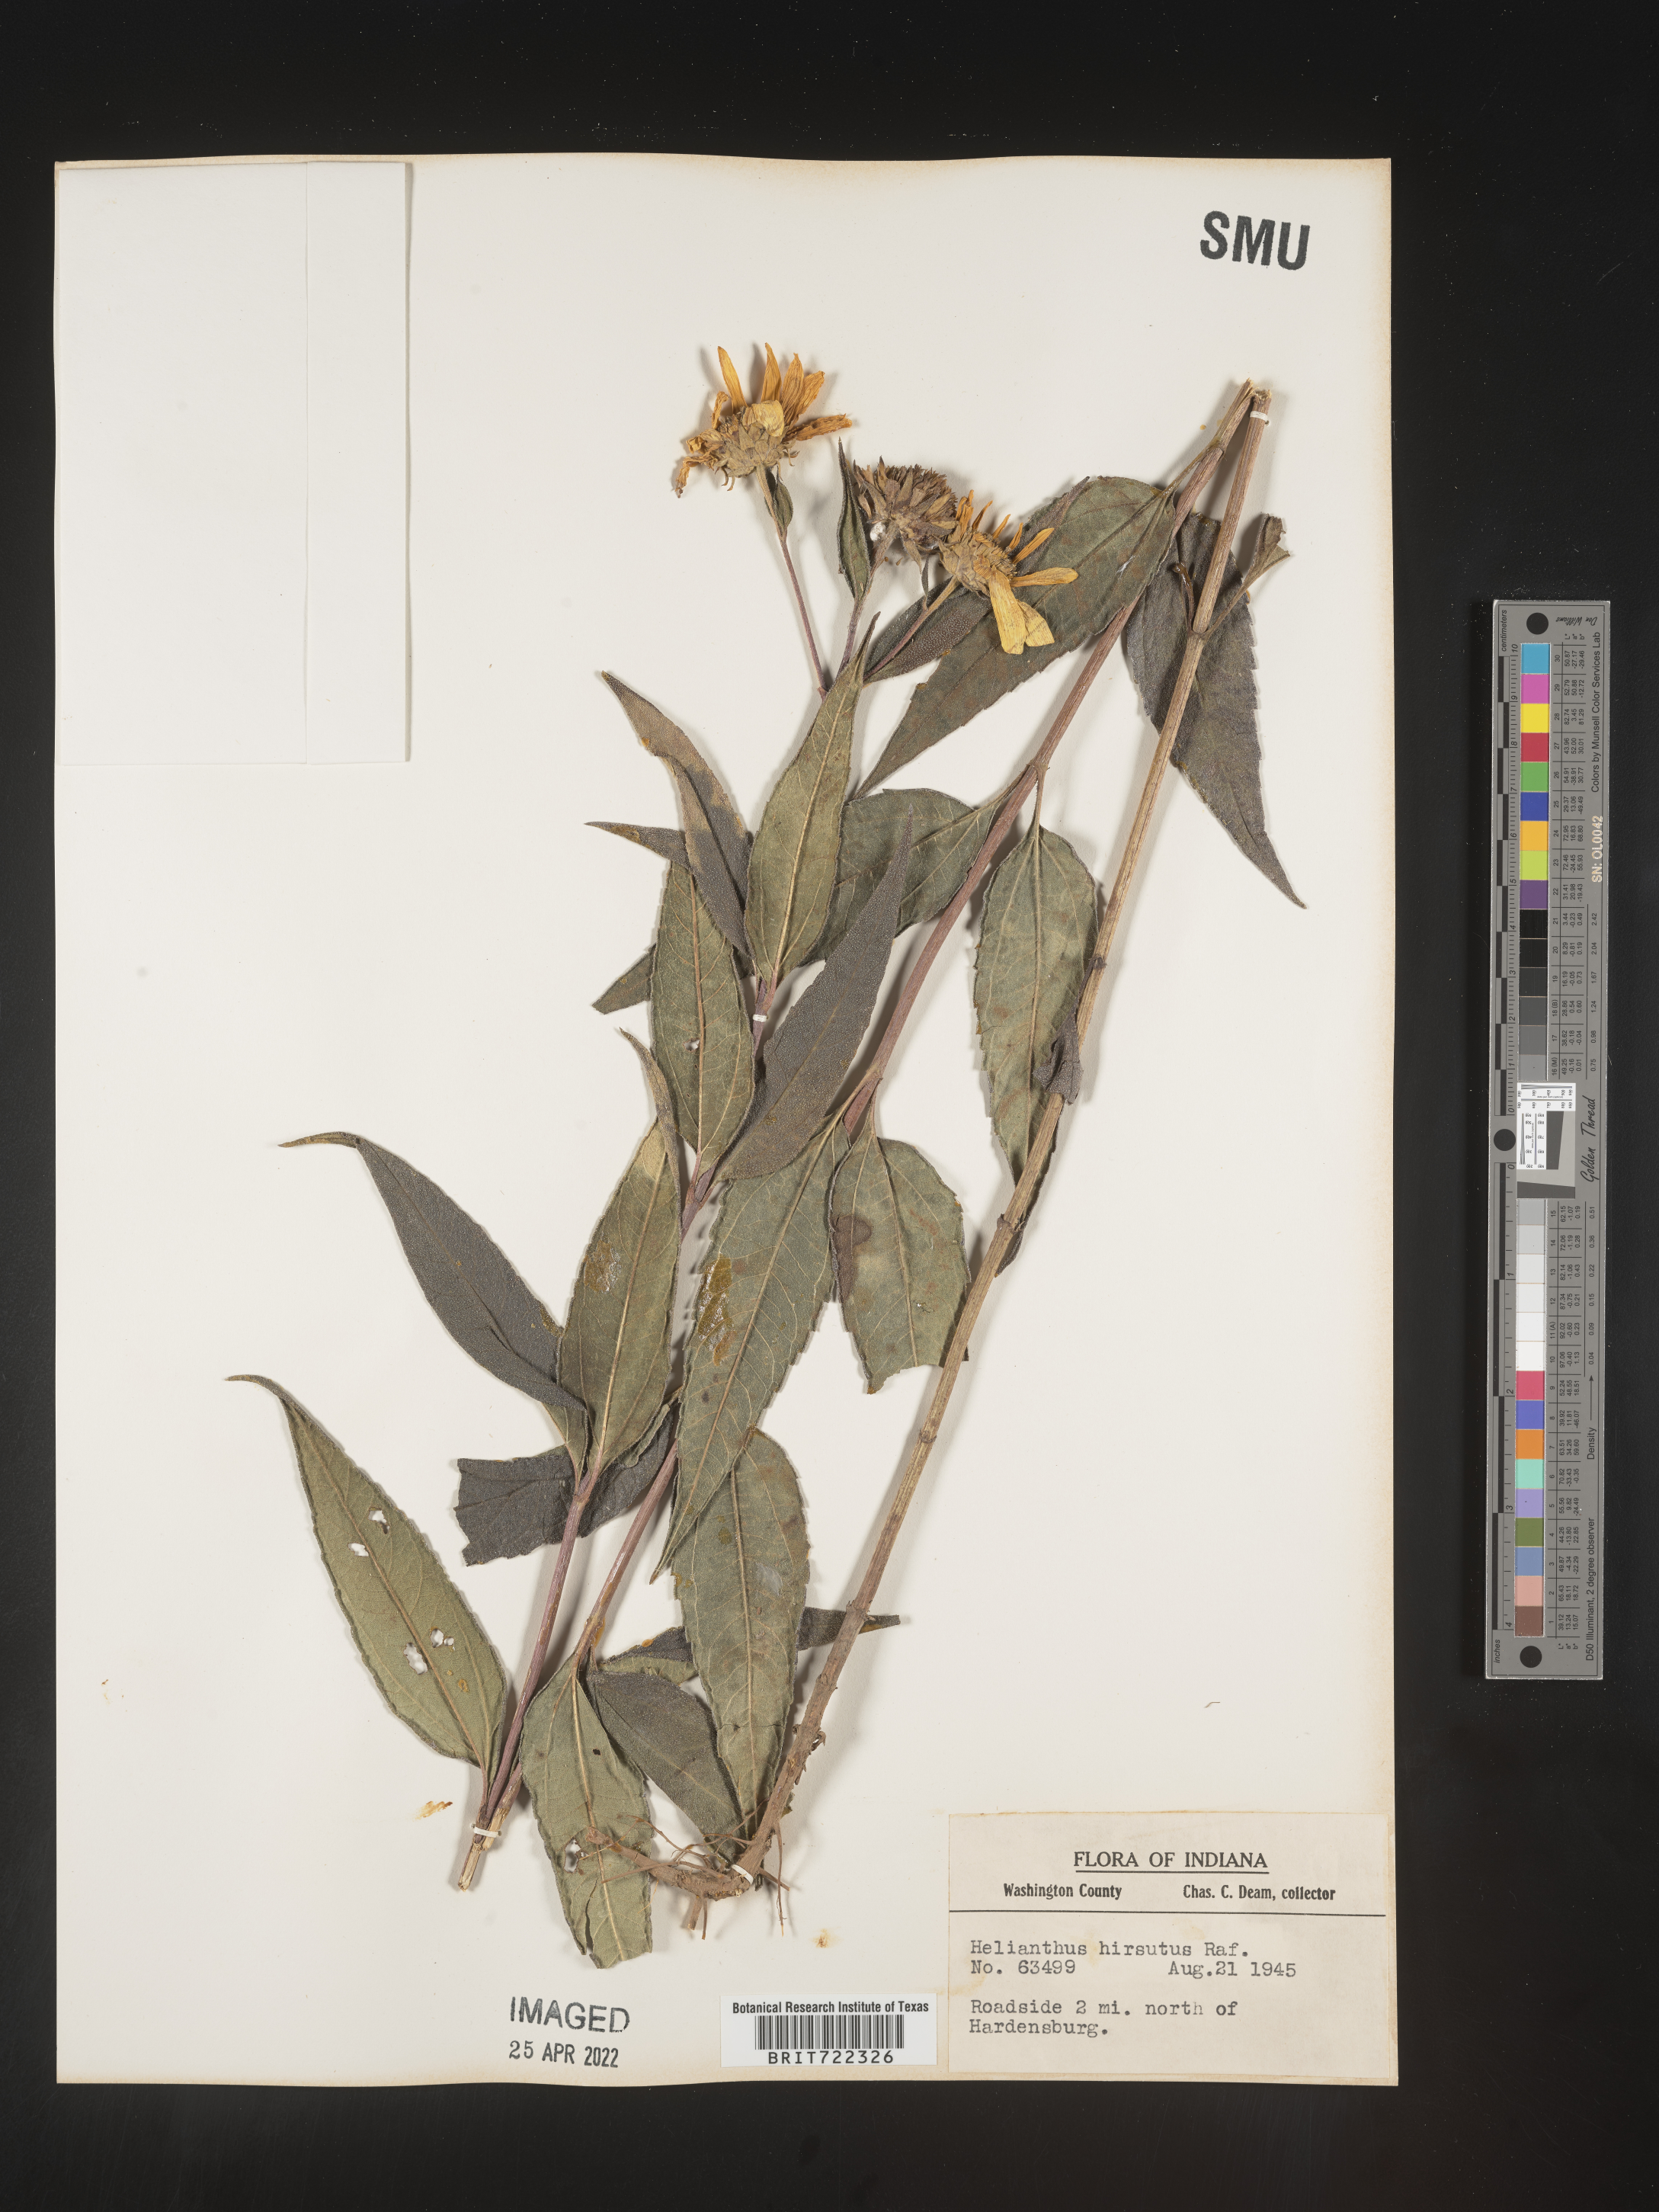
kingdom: Plantae
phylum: Tracheophyta
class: Magnoliopsida
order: Asterales
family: Asteraceae
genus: Helianthus
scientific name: Helianthus hirsutus
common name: Hairy sunflower
